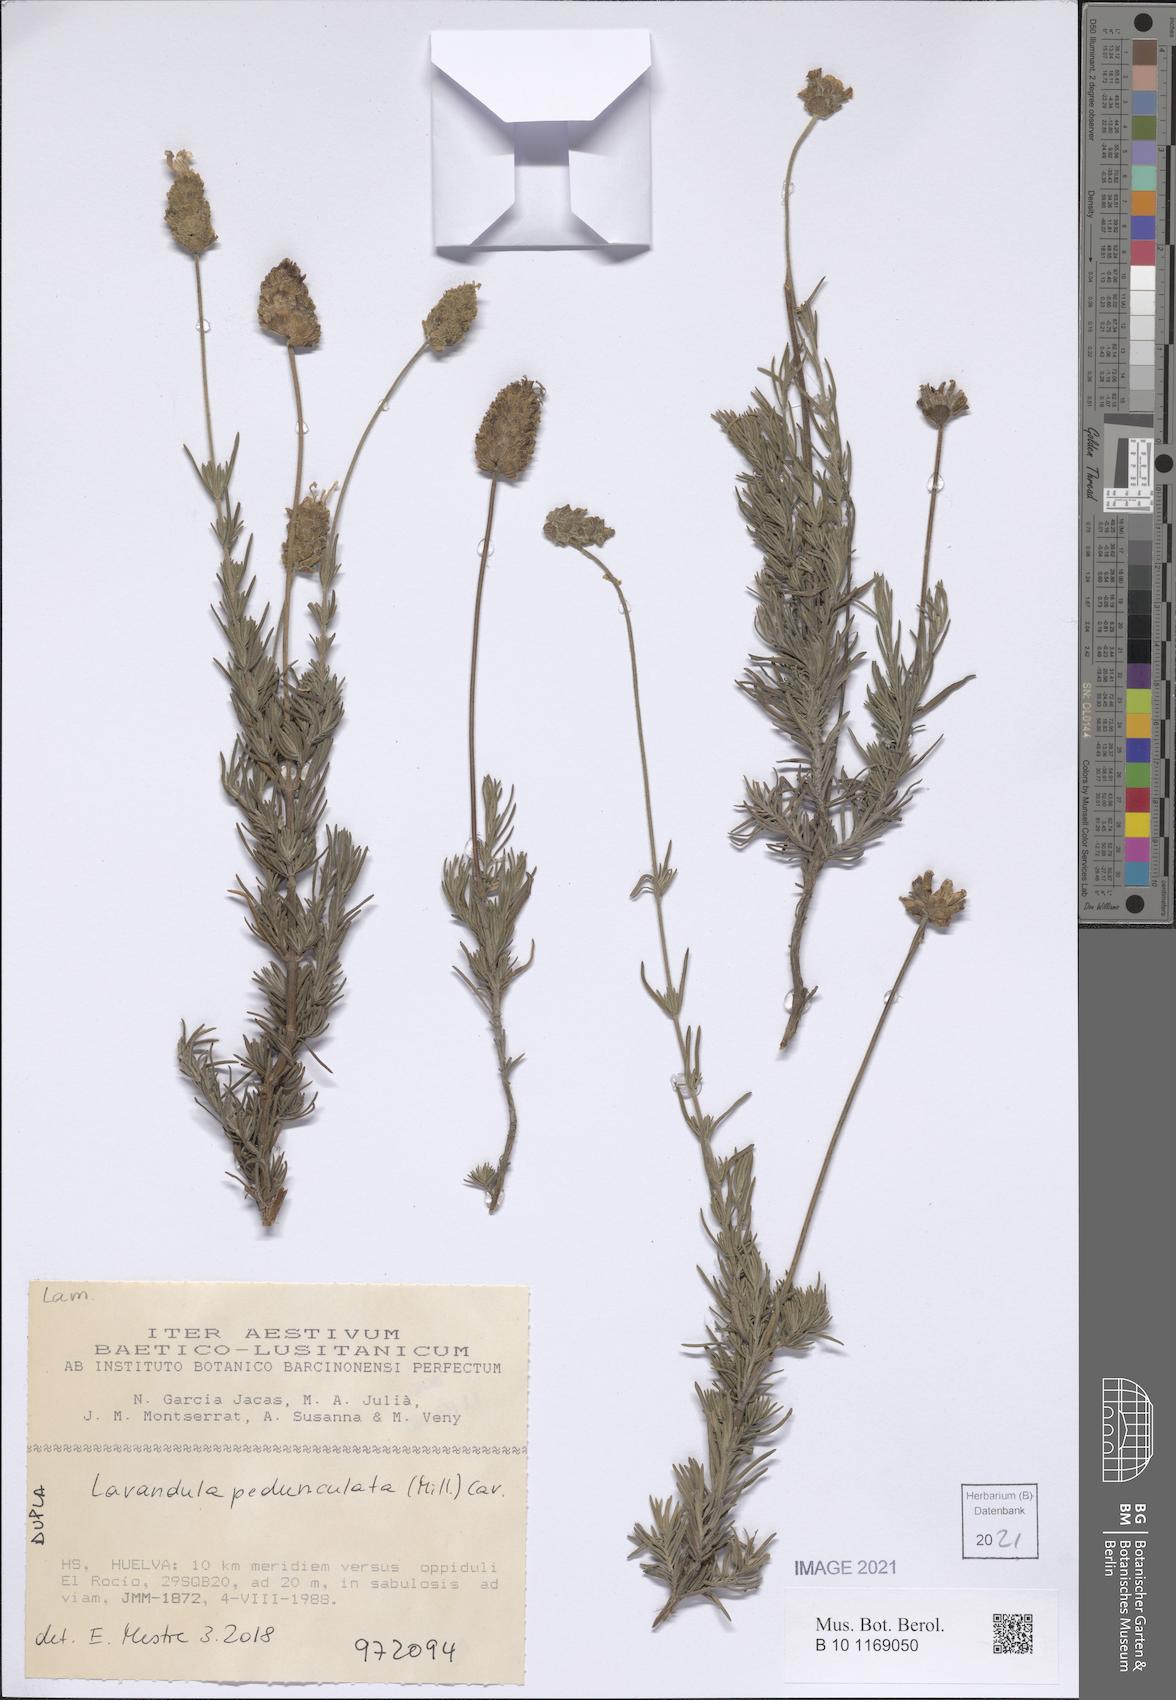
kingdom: Plantae
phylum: Tracheophyta
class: Magnoliopsida
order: Lamiales
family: Lamiaceae
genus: Lavandula
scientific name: Lavandula pedunculata
